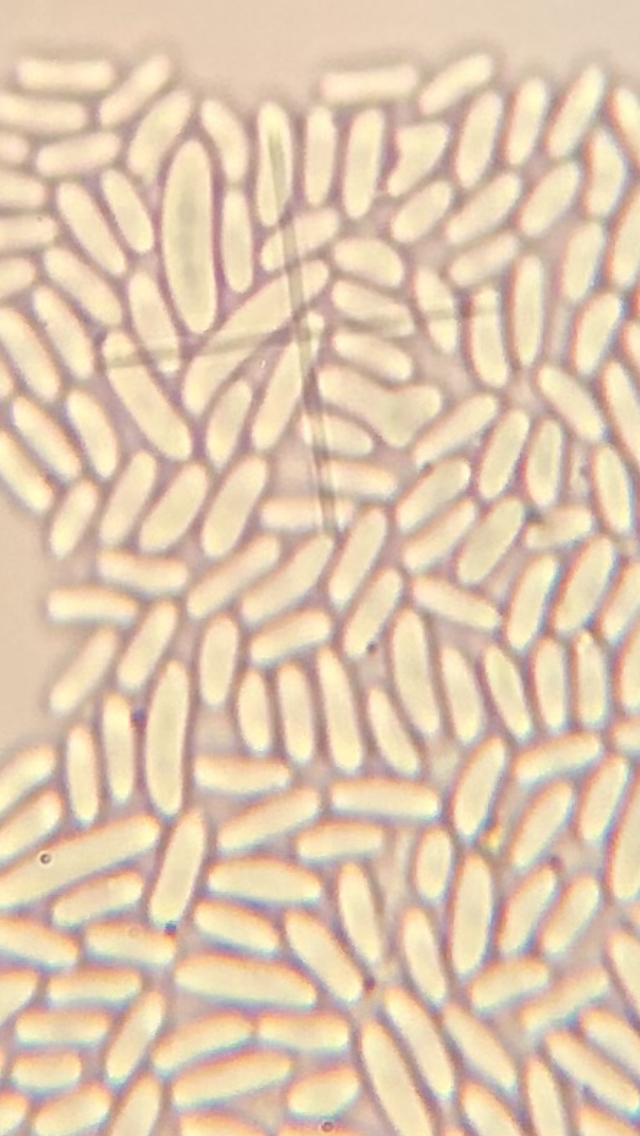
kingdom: Fungi
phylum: Ascomycota
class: Sordariomycetes
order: Hypocreales
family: Nectriaceae
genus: Nectria
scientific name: Nectria cinnabarina
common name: almindelig cinnobersvamp
